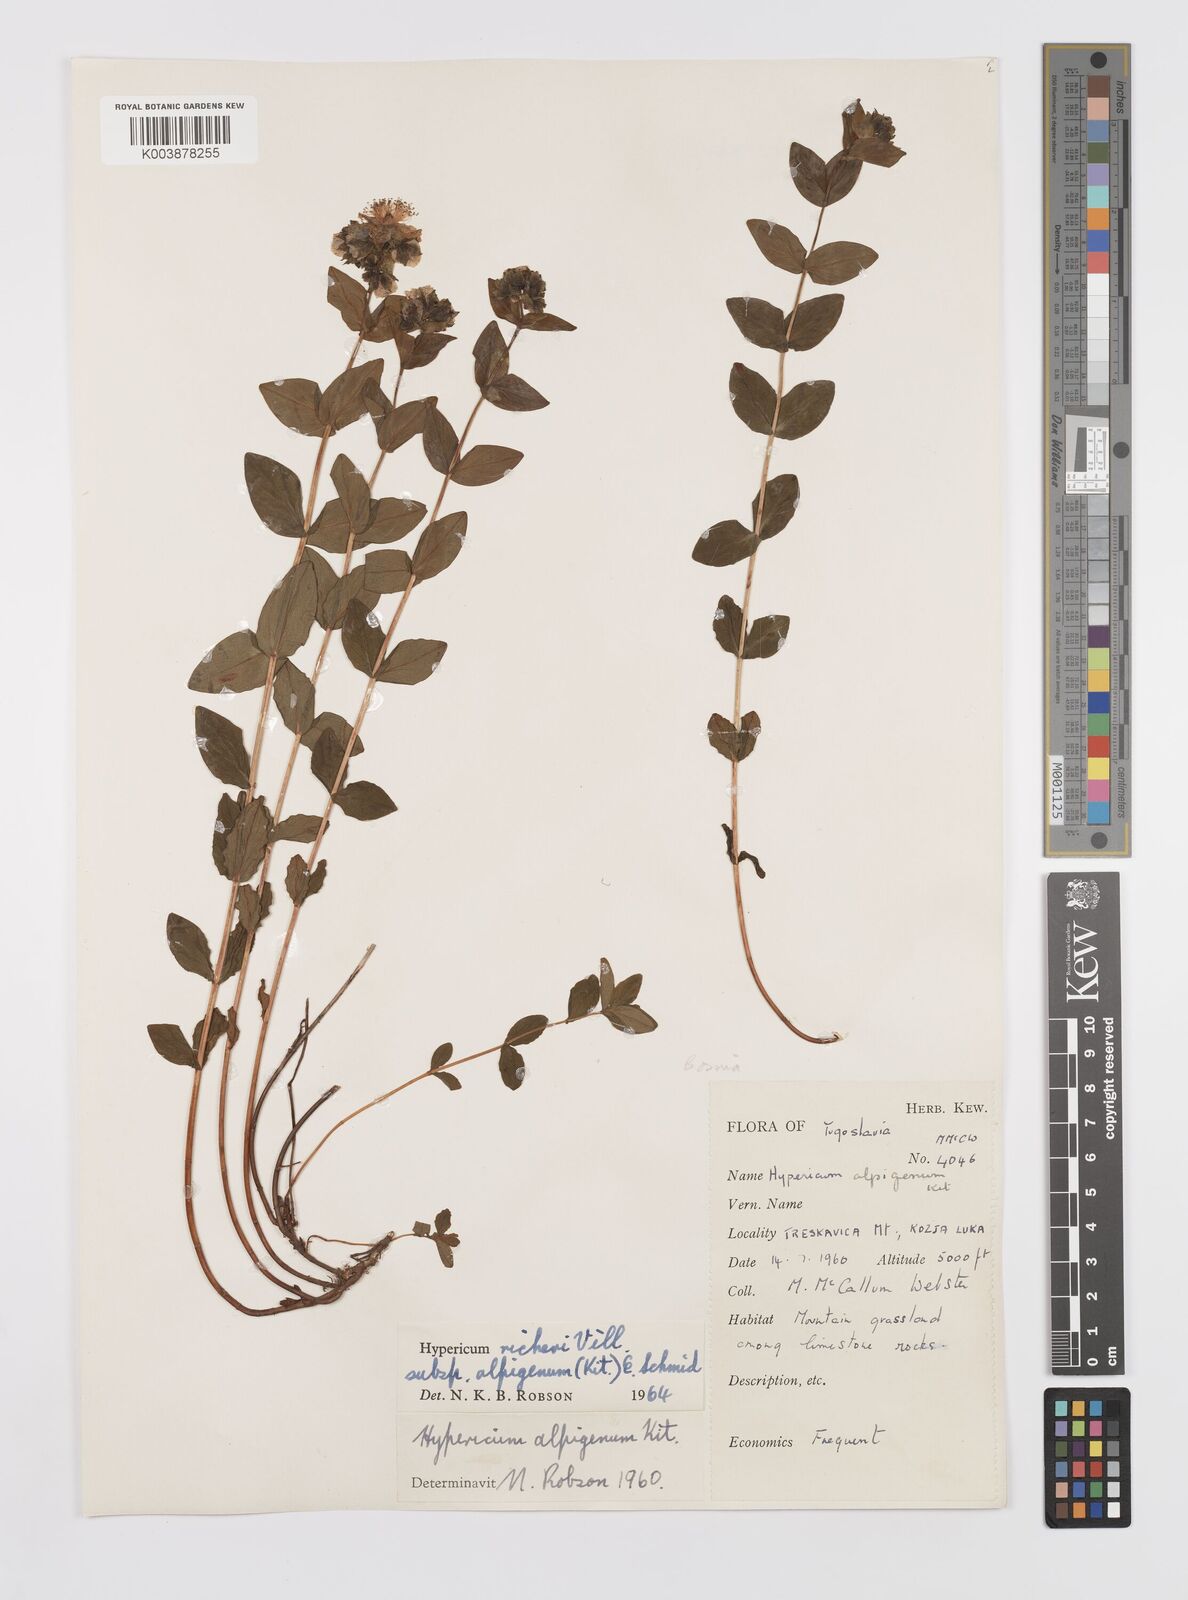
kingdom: Plantae
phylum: Tracheophyta
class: Magnoliopsida
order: Malpighiales
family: Hypericaceae
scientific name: Hypericaceae
